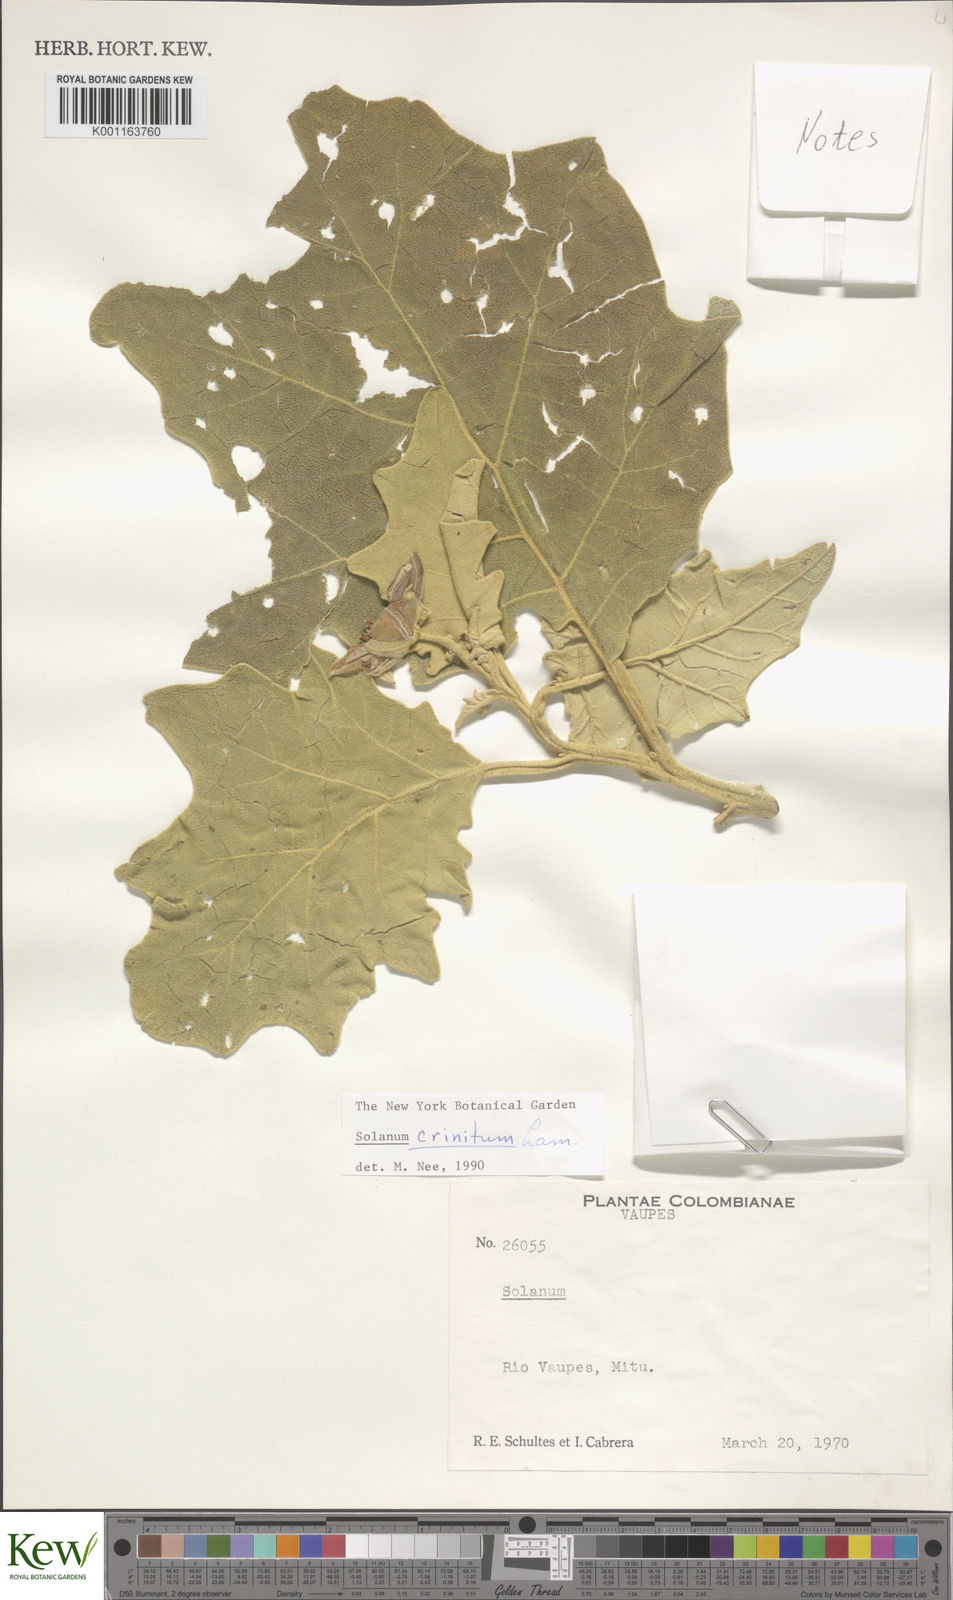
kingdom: Plantae
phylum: Tracheophyta
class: Magnoliopsida
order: Solanales
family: Solanaceae
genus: Solanum
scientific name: Solanum crinitum
